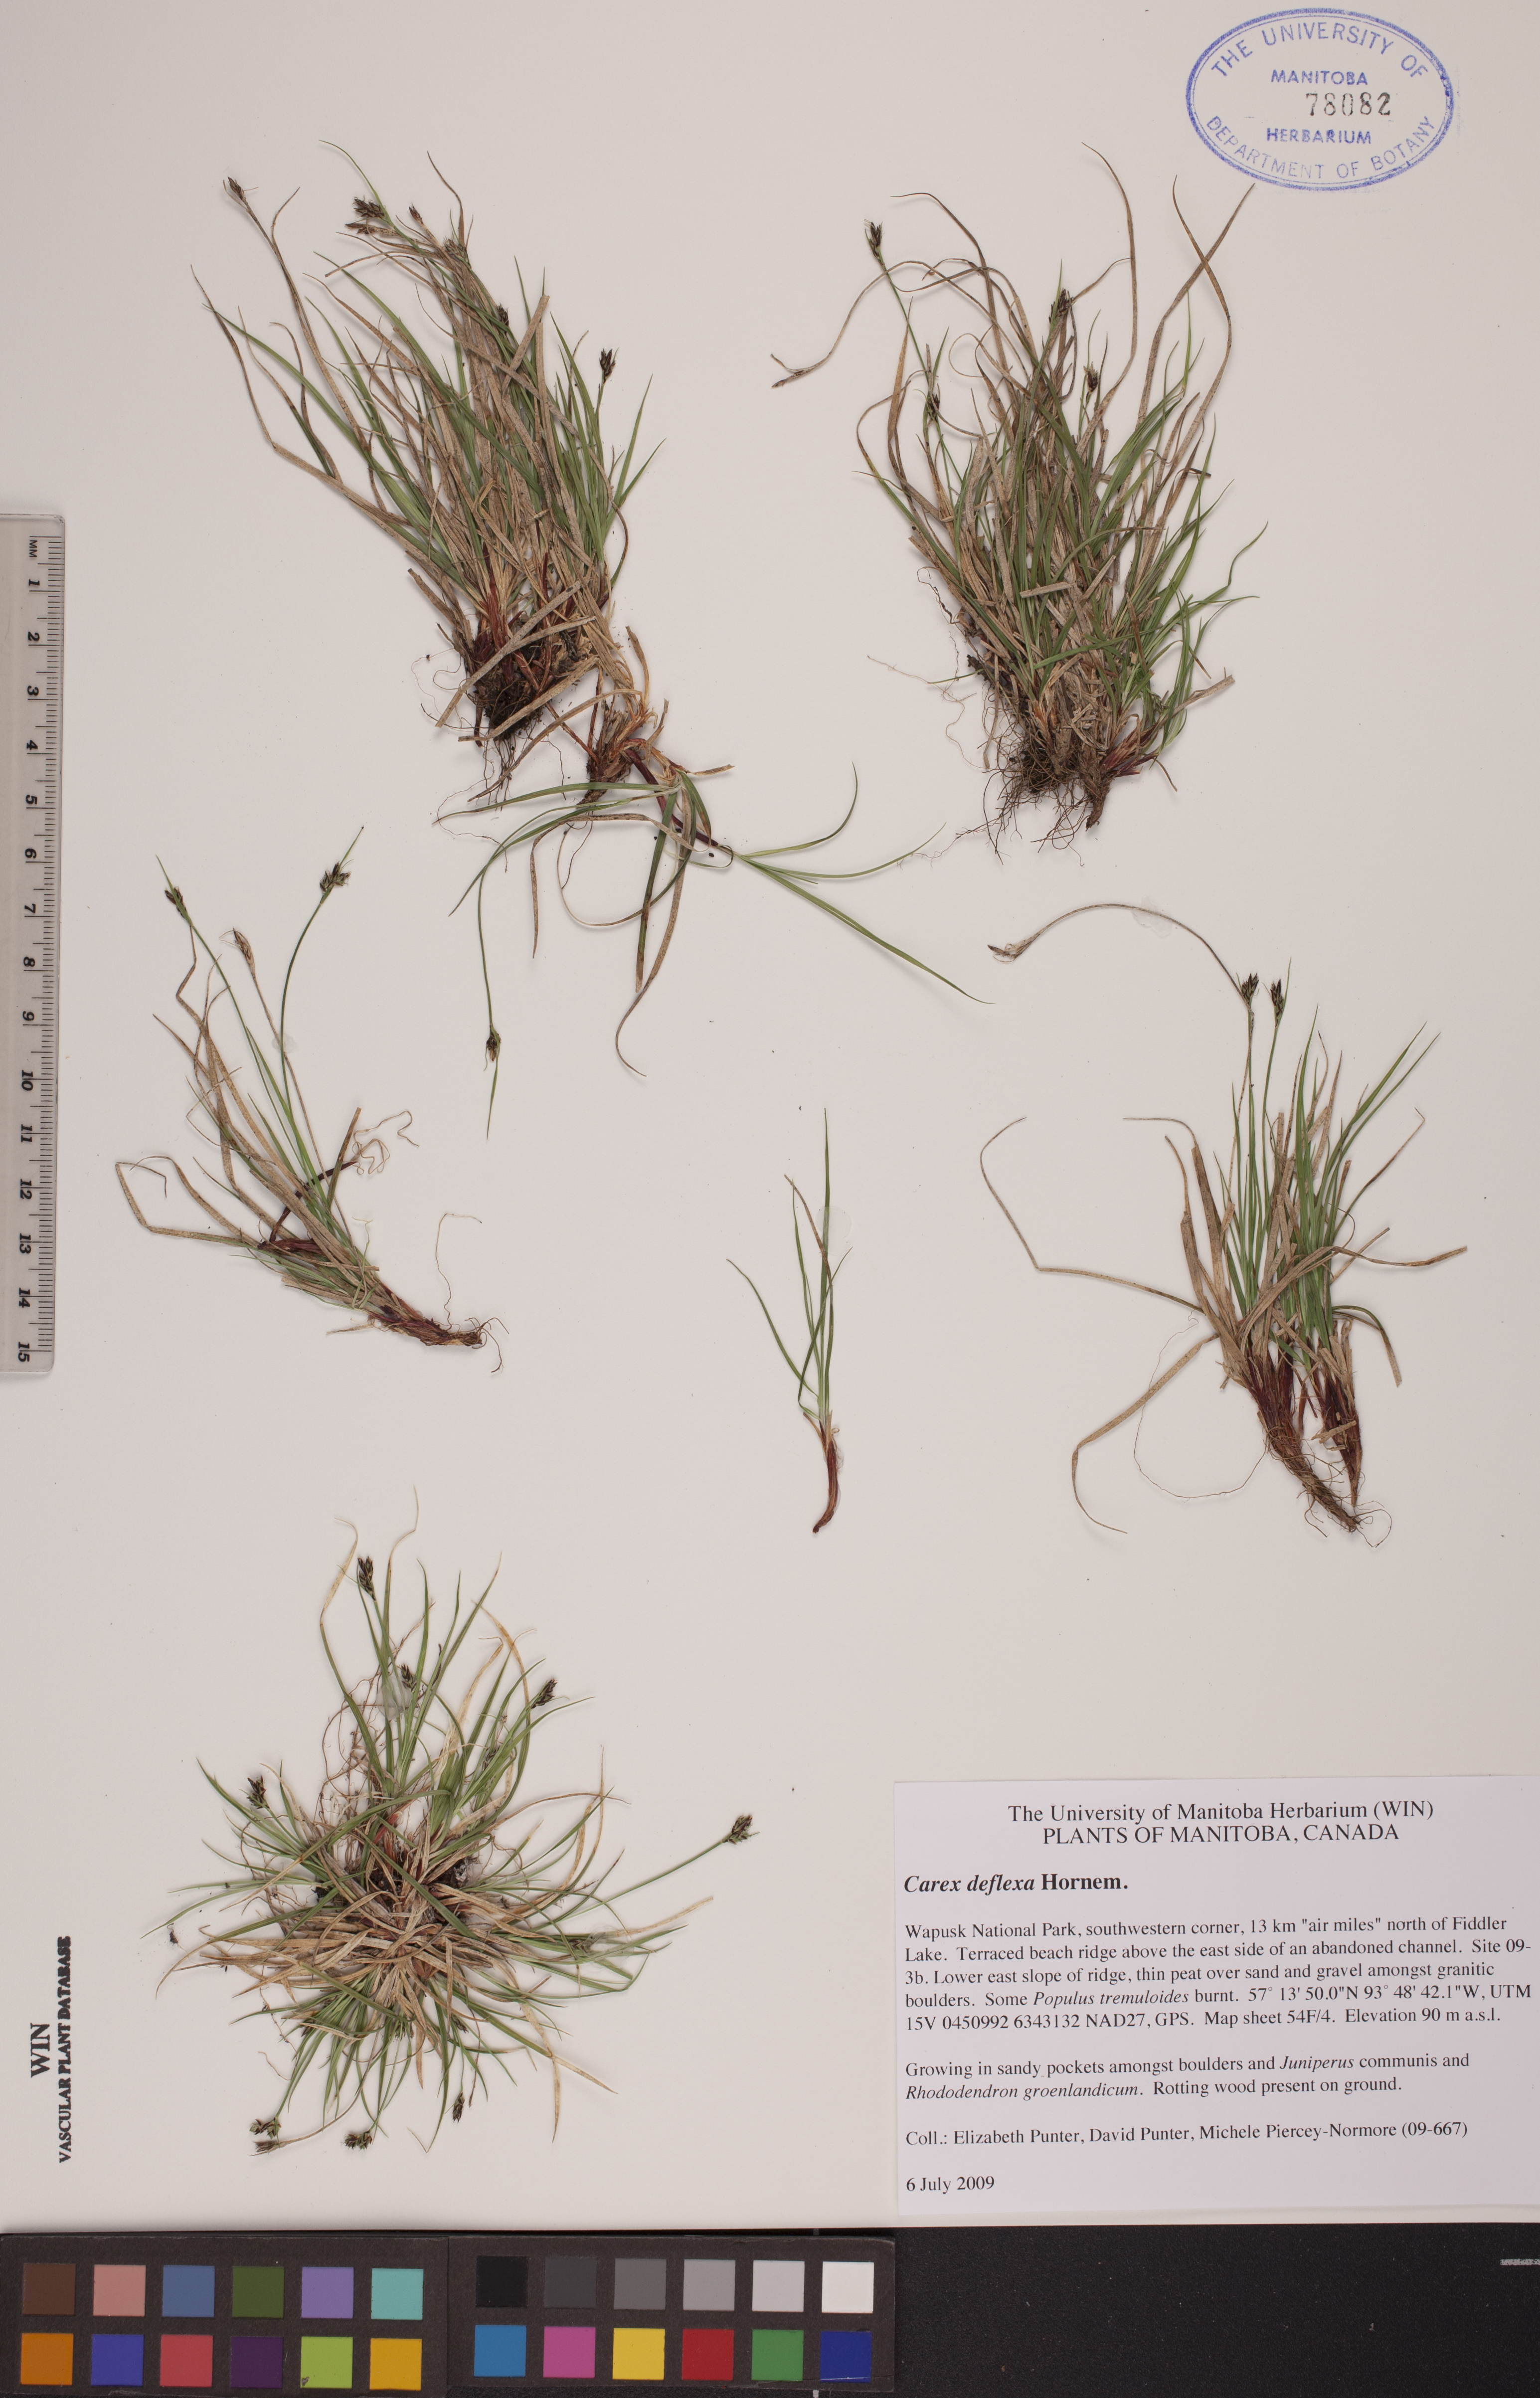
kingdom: Plantae
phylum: Tracheophyta
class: Liliopsida
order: Poales
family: Cyperaceae
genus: Carex
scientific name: Carex deflexa
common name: Bent northern sedge
